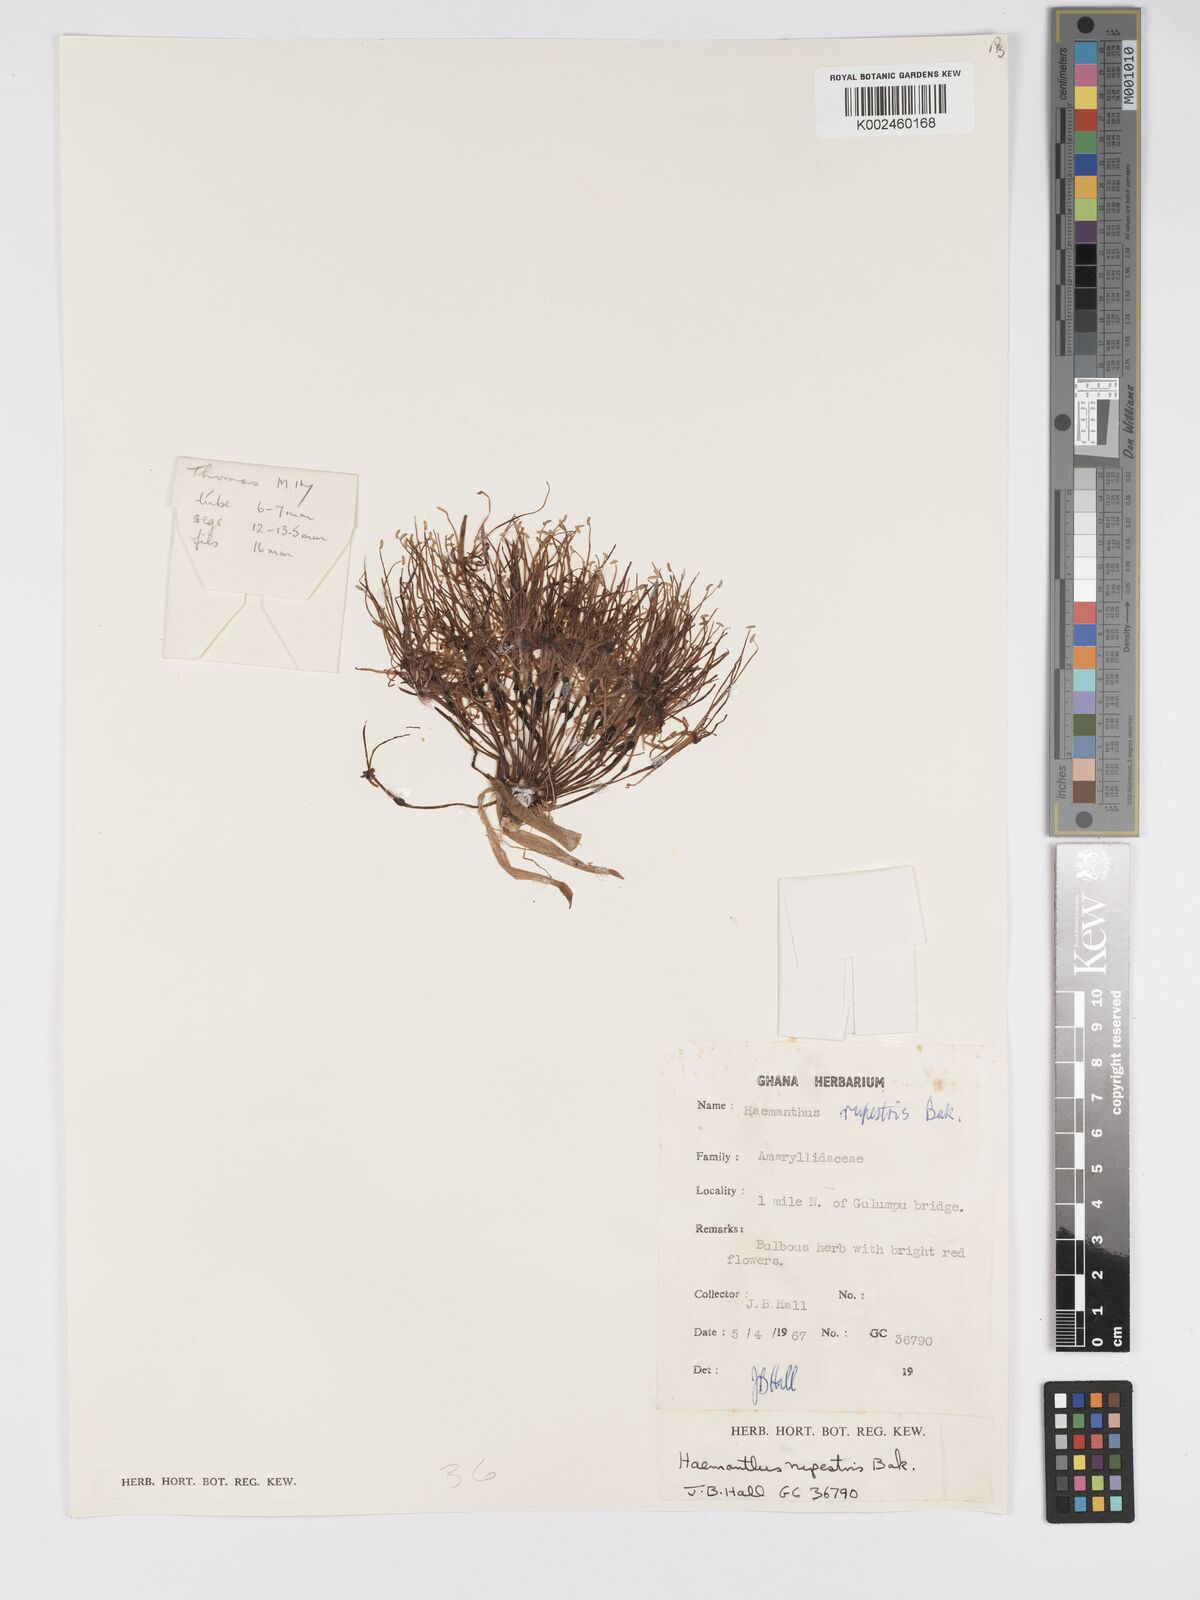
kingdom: Plantae
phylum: Tracheophyta
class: Liliopsida
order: Asparagales
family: Amaryllidaceae
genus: Scadoxus
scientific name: Scadoxus multiflorus
